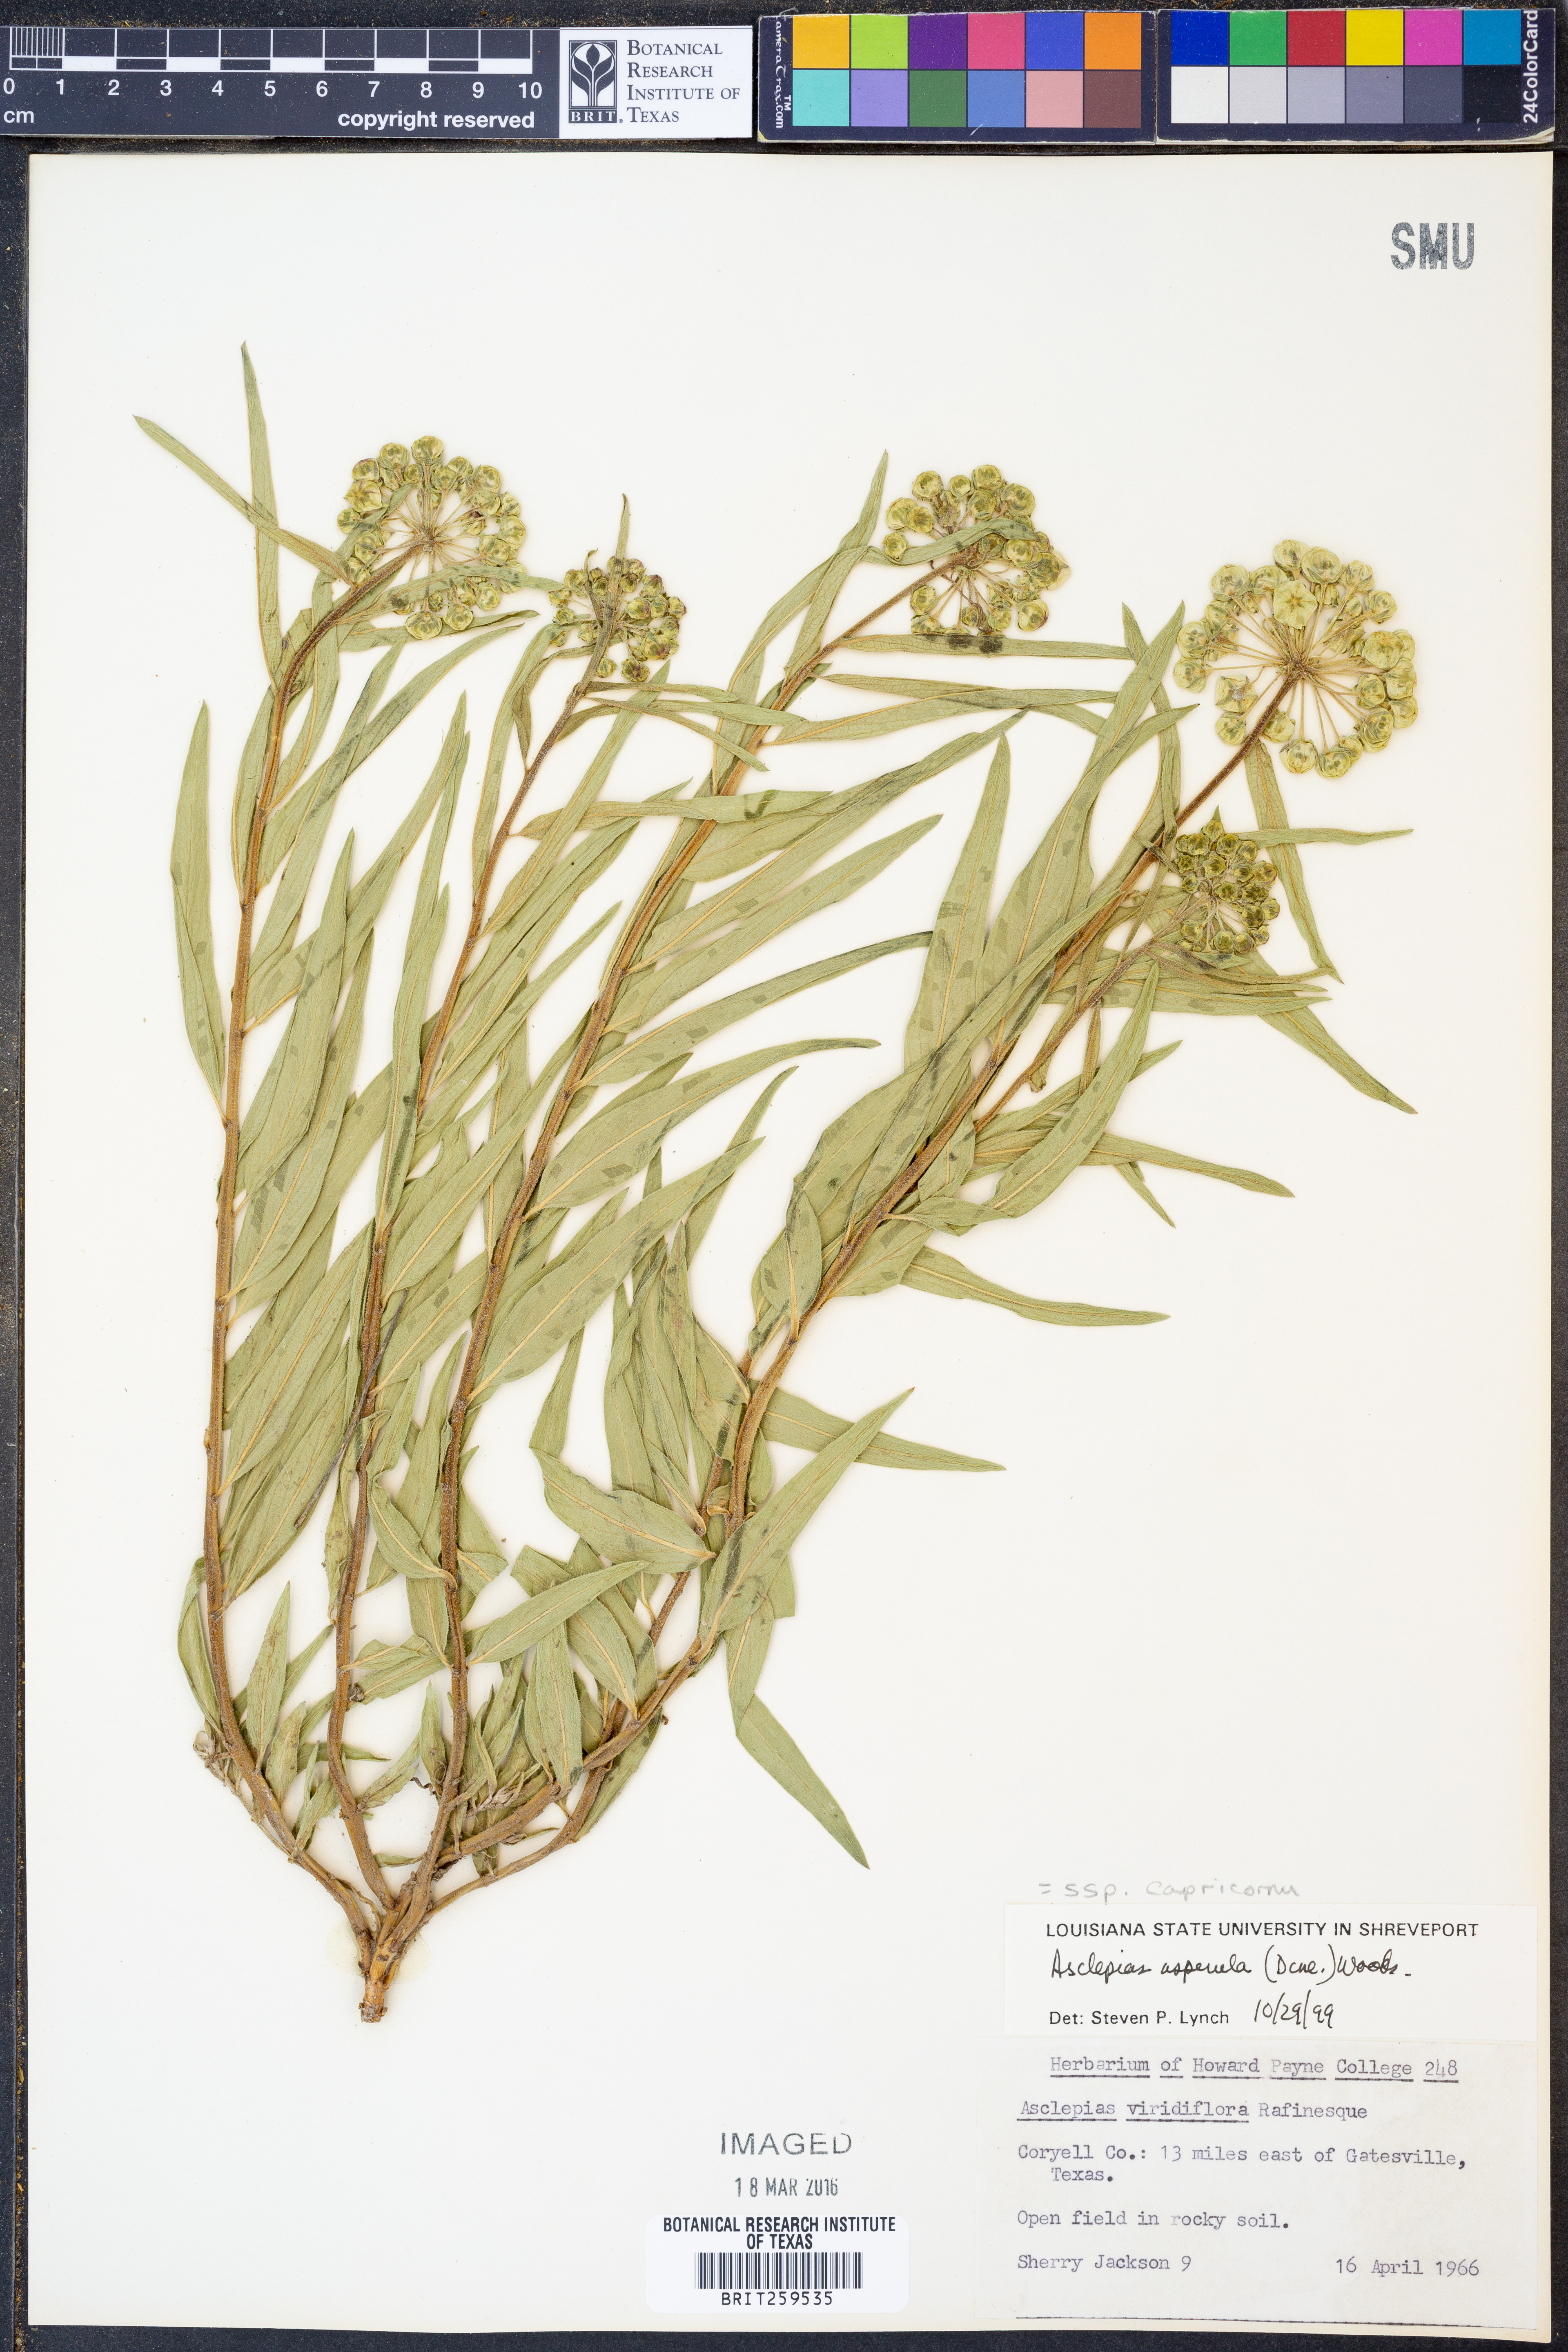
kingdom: Plantae
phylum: Tracheophyta
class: Magnoliopsida
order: Gentianales
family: Apocynaceae
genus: Asclepias
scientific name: Asclepias asperula
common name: Antelope horns
